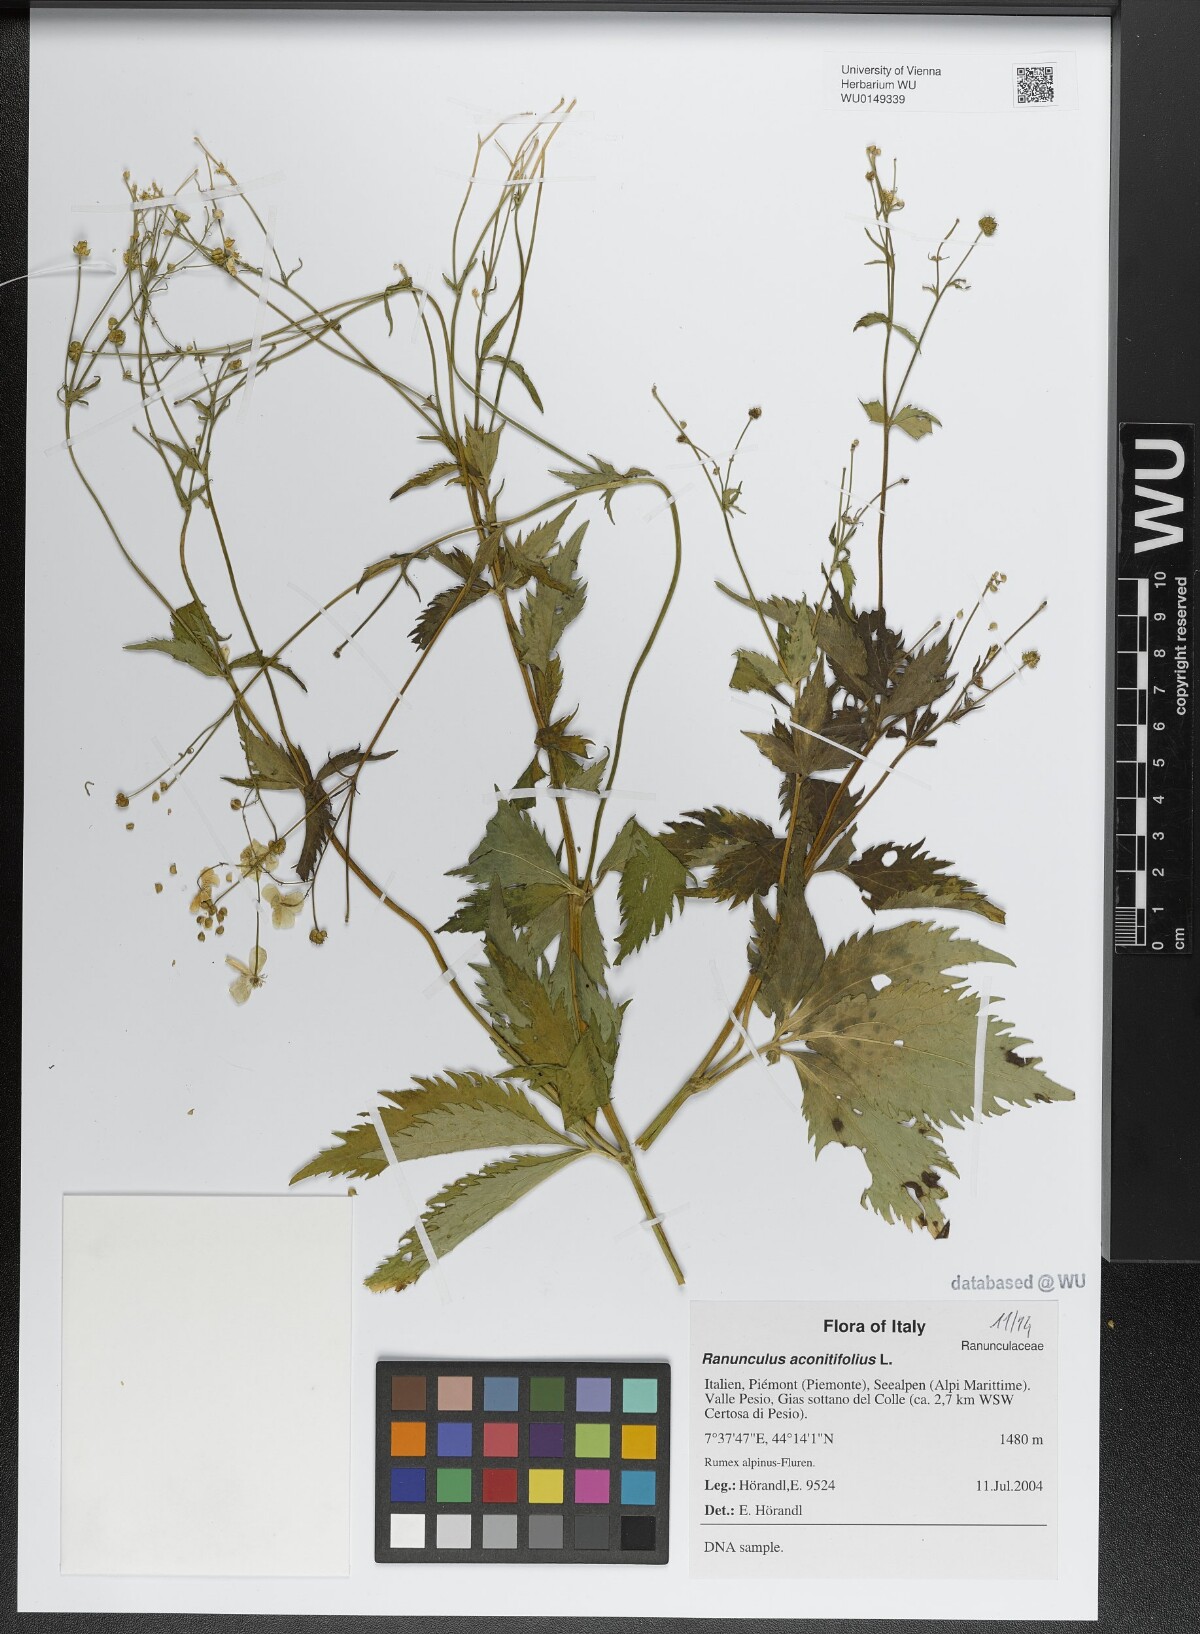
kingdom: Plantae
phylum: Tracheophyta
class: Magnoliopsida
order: Ranunculales
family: Ranunculaceae
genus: Ranunculus
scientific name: Ranunculus aconitifolius
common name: Aconite-leaved buttercup
